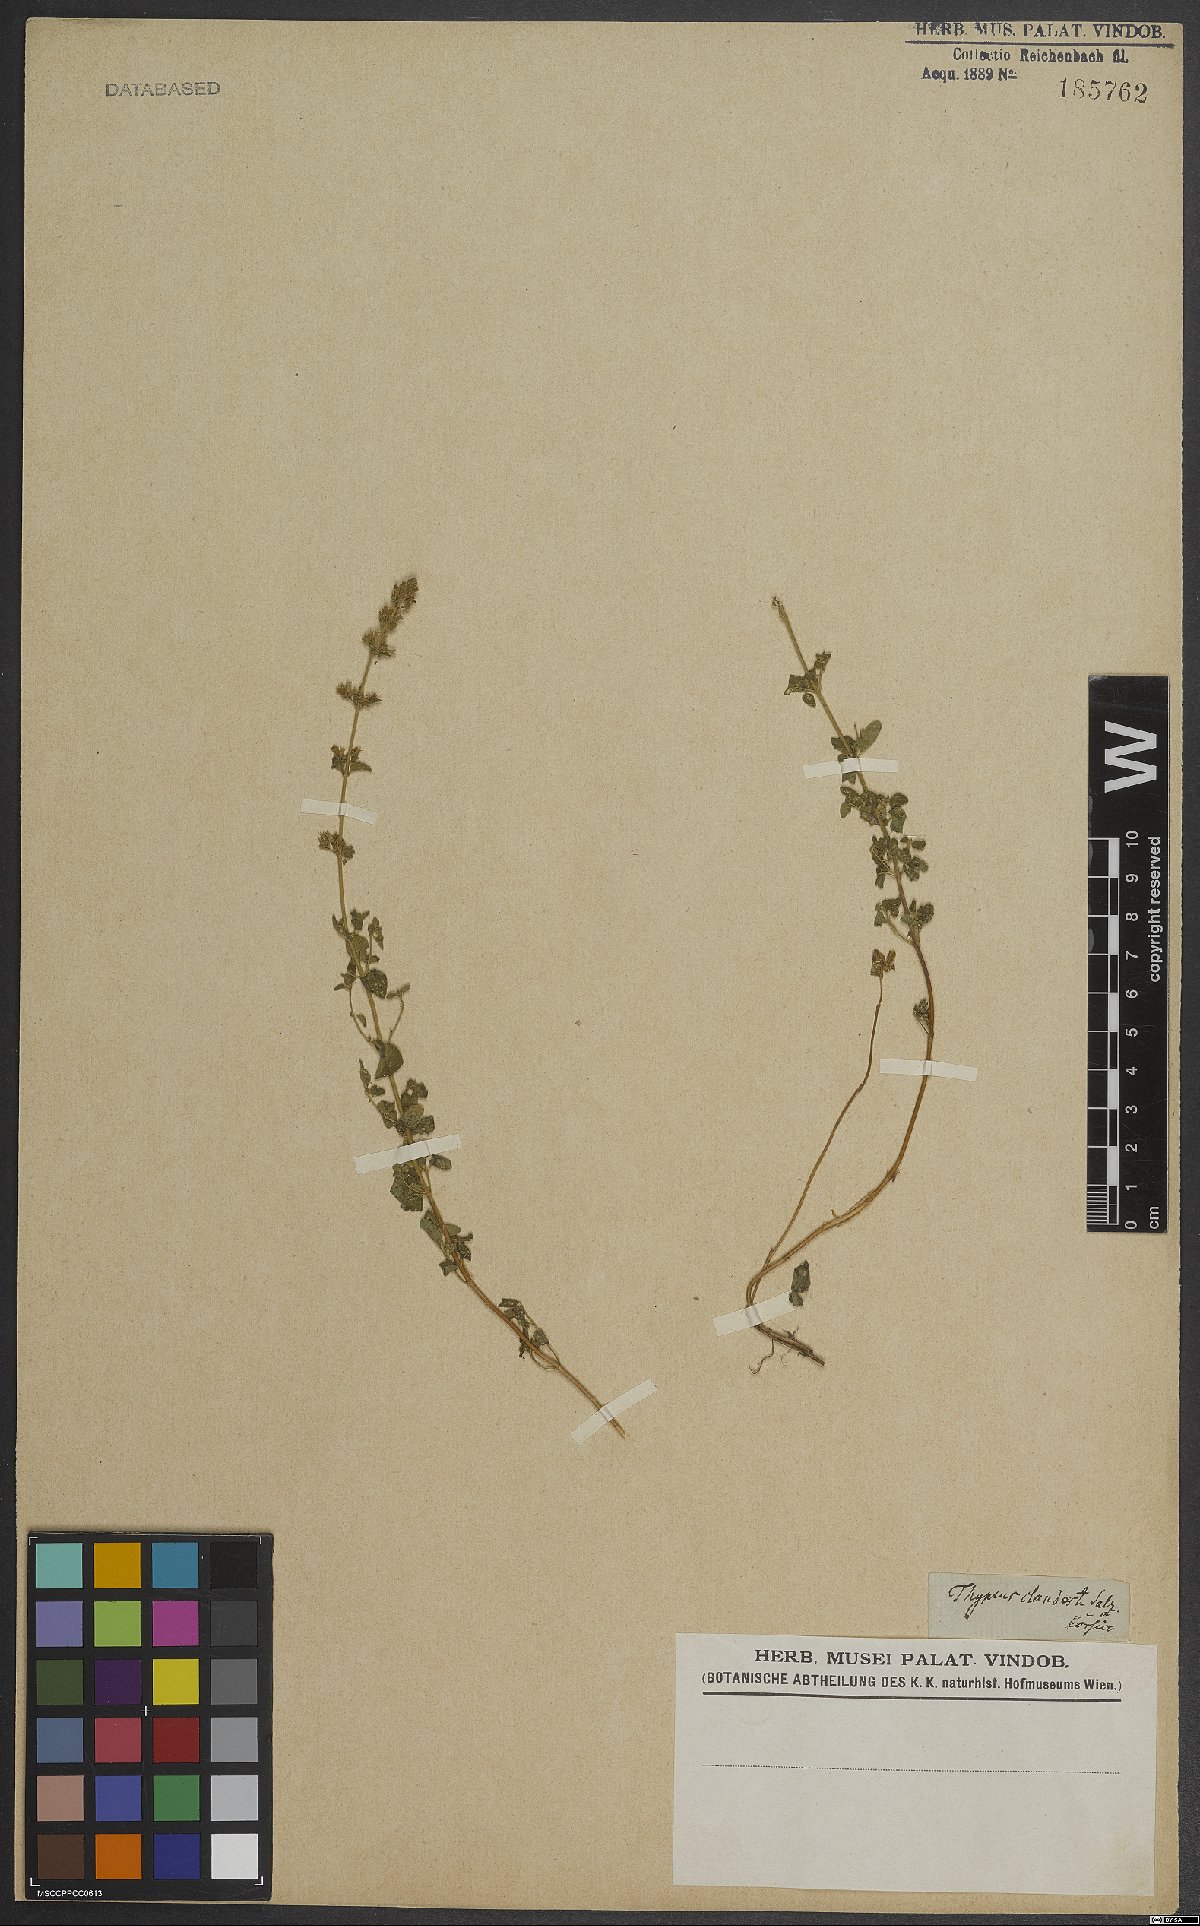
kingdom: Plantae
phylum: Tracheophyta
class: Magnoliopsida
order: Lamiales
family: Lamiaceae
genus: Clinopodium
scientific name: Clinopodium nepeta
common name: Lesser calamint
